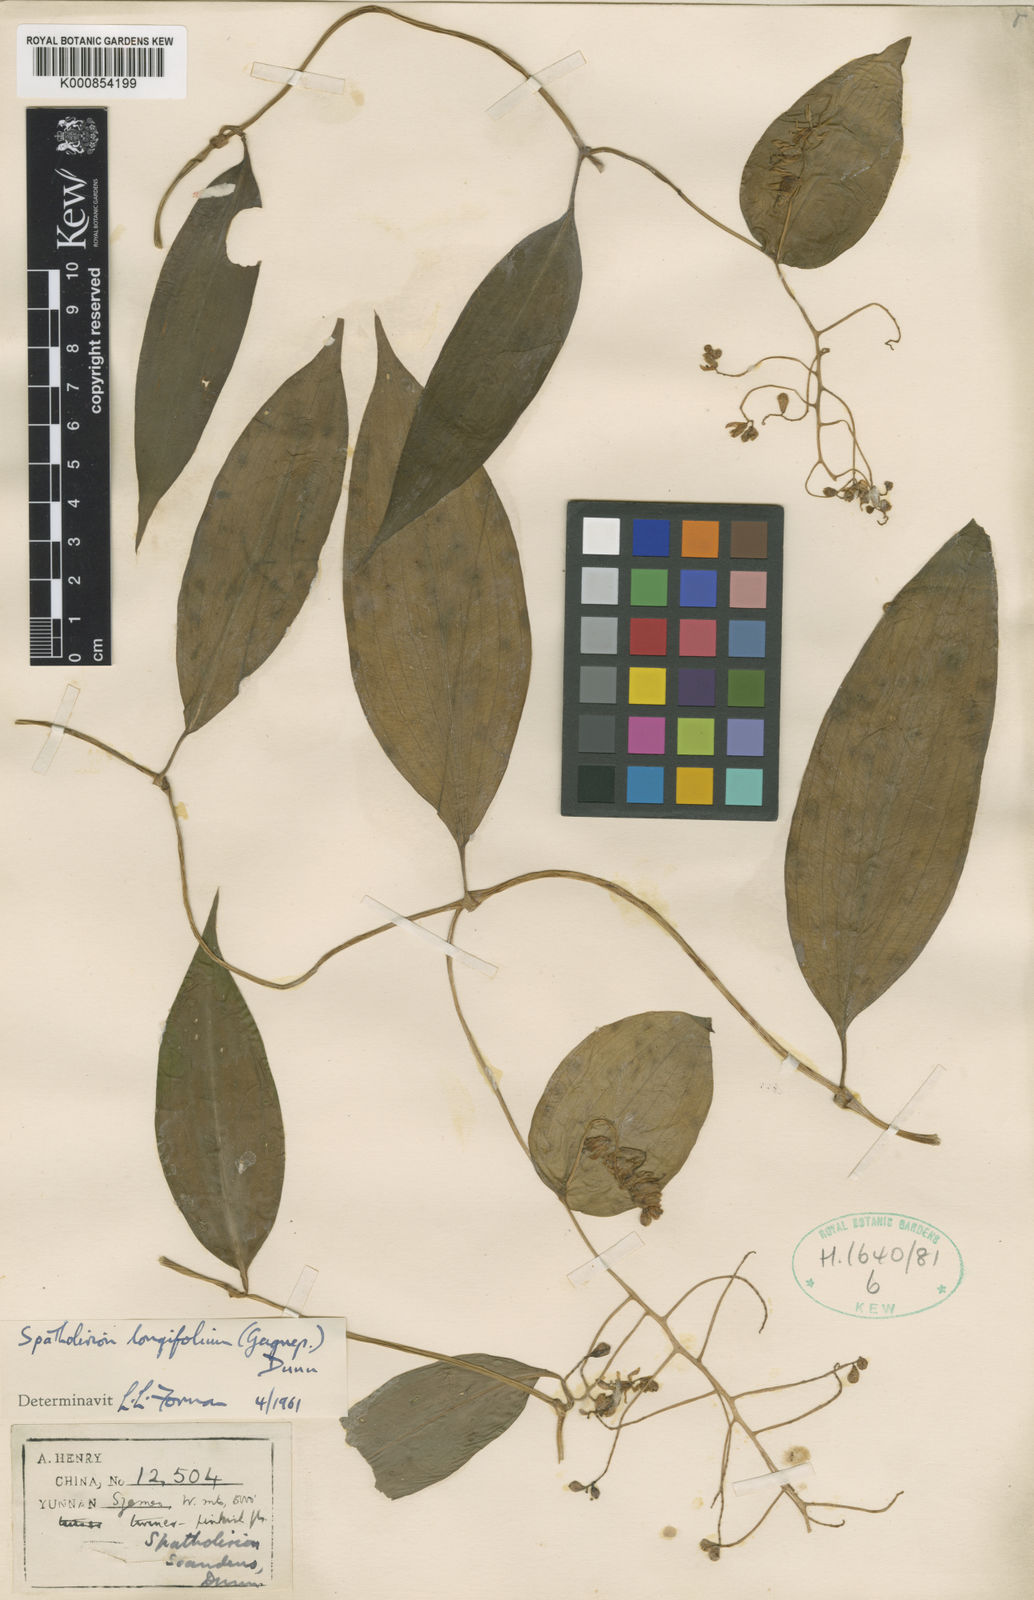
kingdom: Plantae
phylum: Tracheophyta
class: Liliopsida
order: Commelinales
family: Commelinaceae
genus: Spatholirion
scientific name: Spatholirion longifolium
